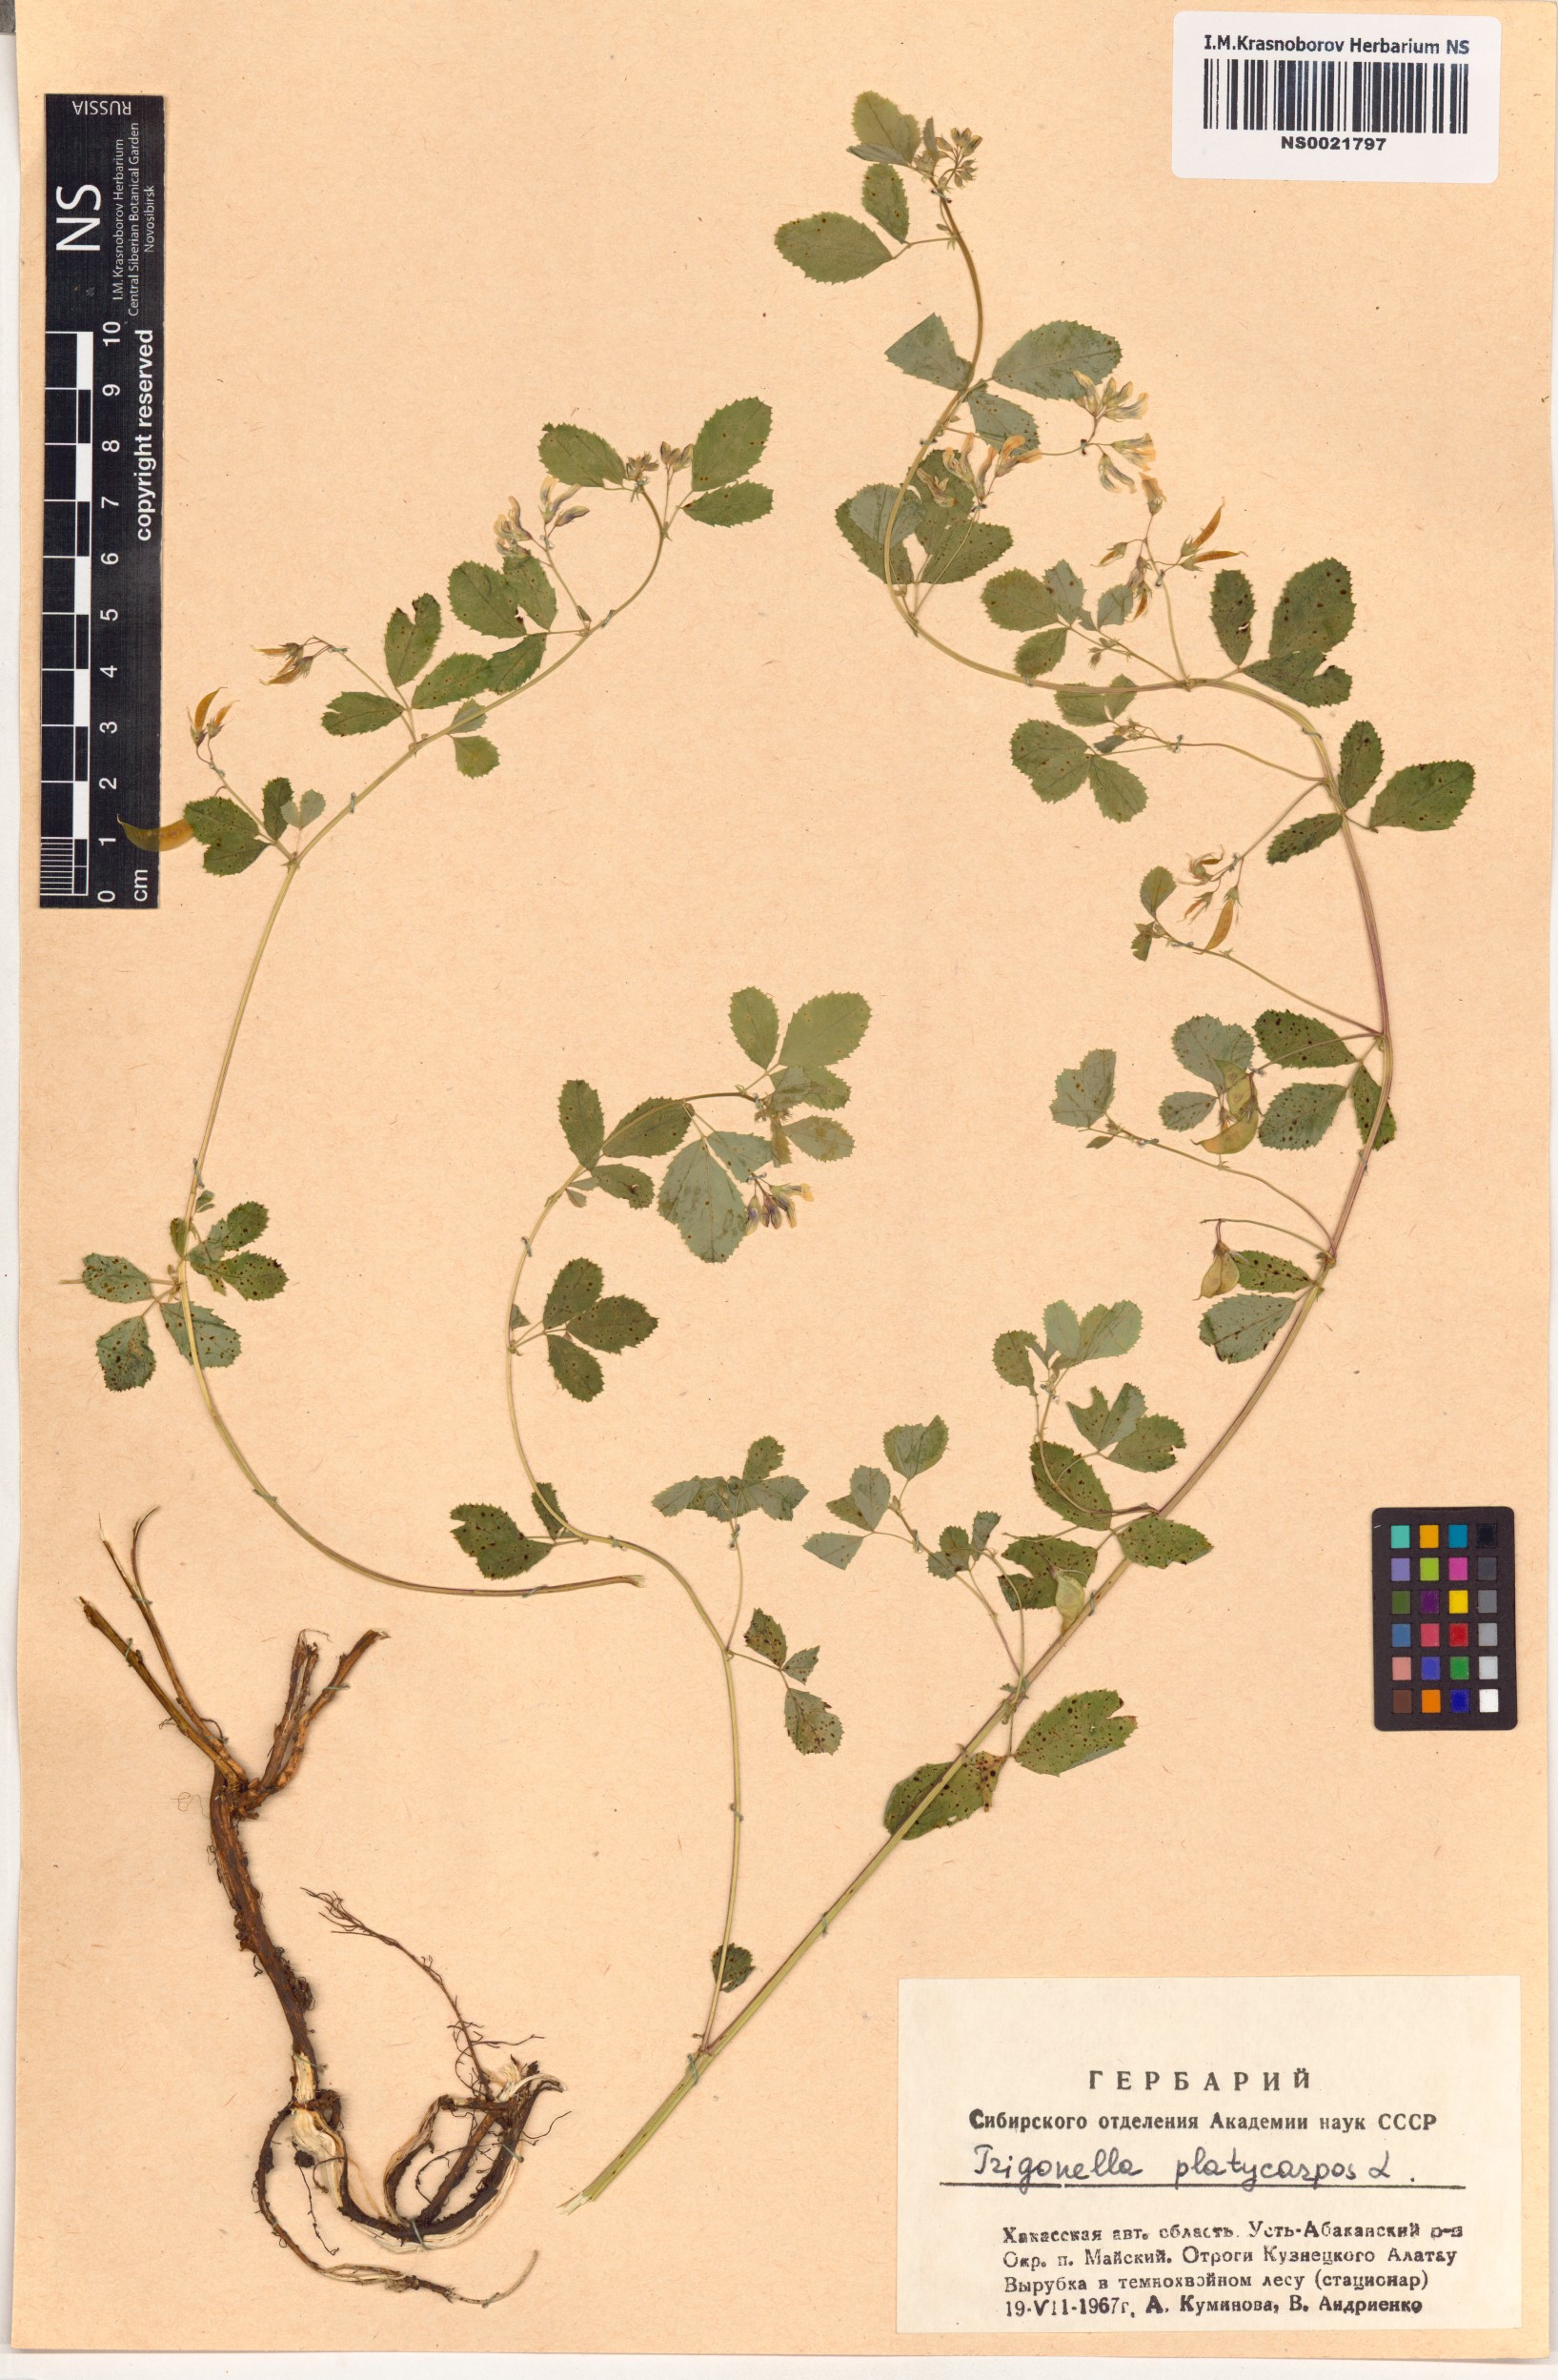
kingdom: Plantae
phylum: Tracheophyta
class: Magnoliopsida
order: Fabales
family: Fabaceae
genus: Medicago
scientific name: Medicago platycarpos
